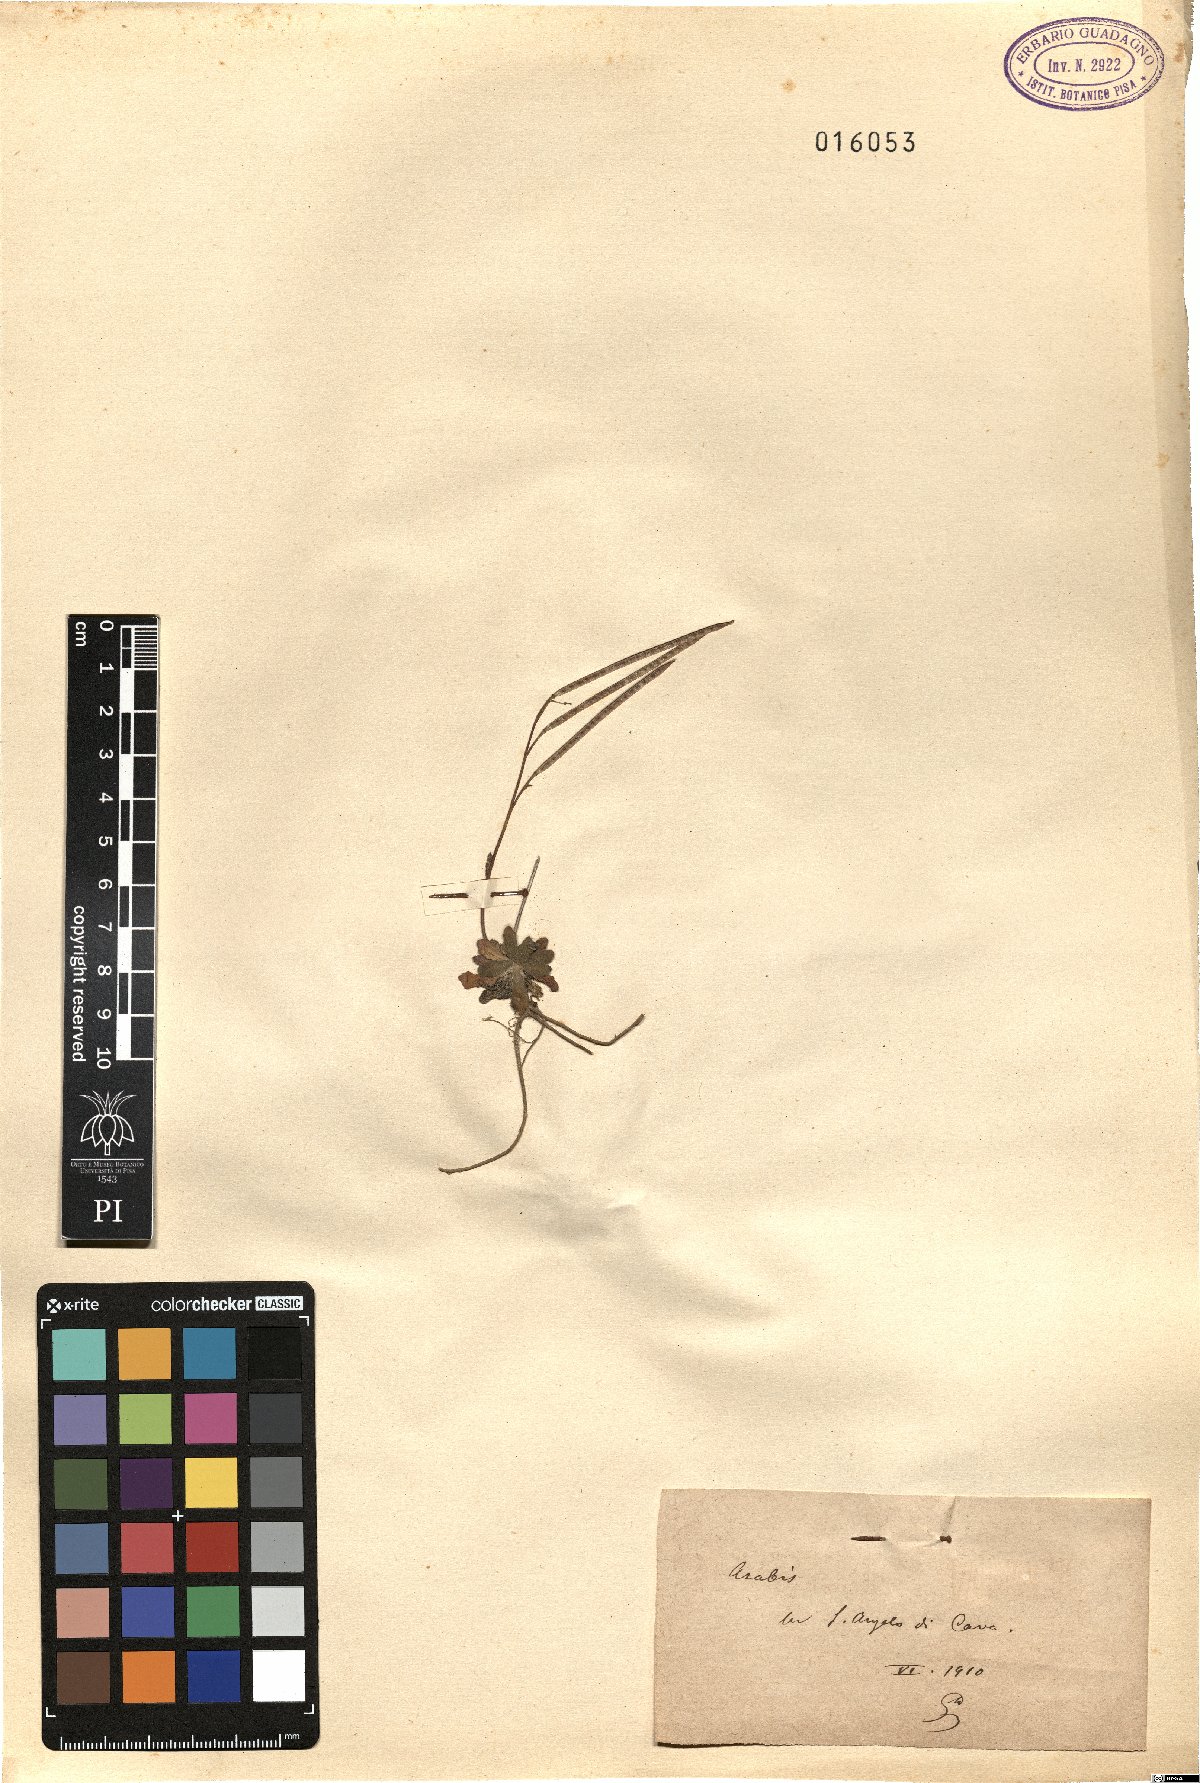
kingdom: Plantae
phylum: Tracheophyta
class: Magnoliopsida
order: Brassicales
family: Brassicaceae
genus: Arabis
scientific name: Arabis
